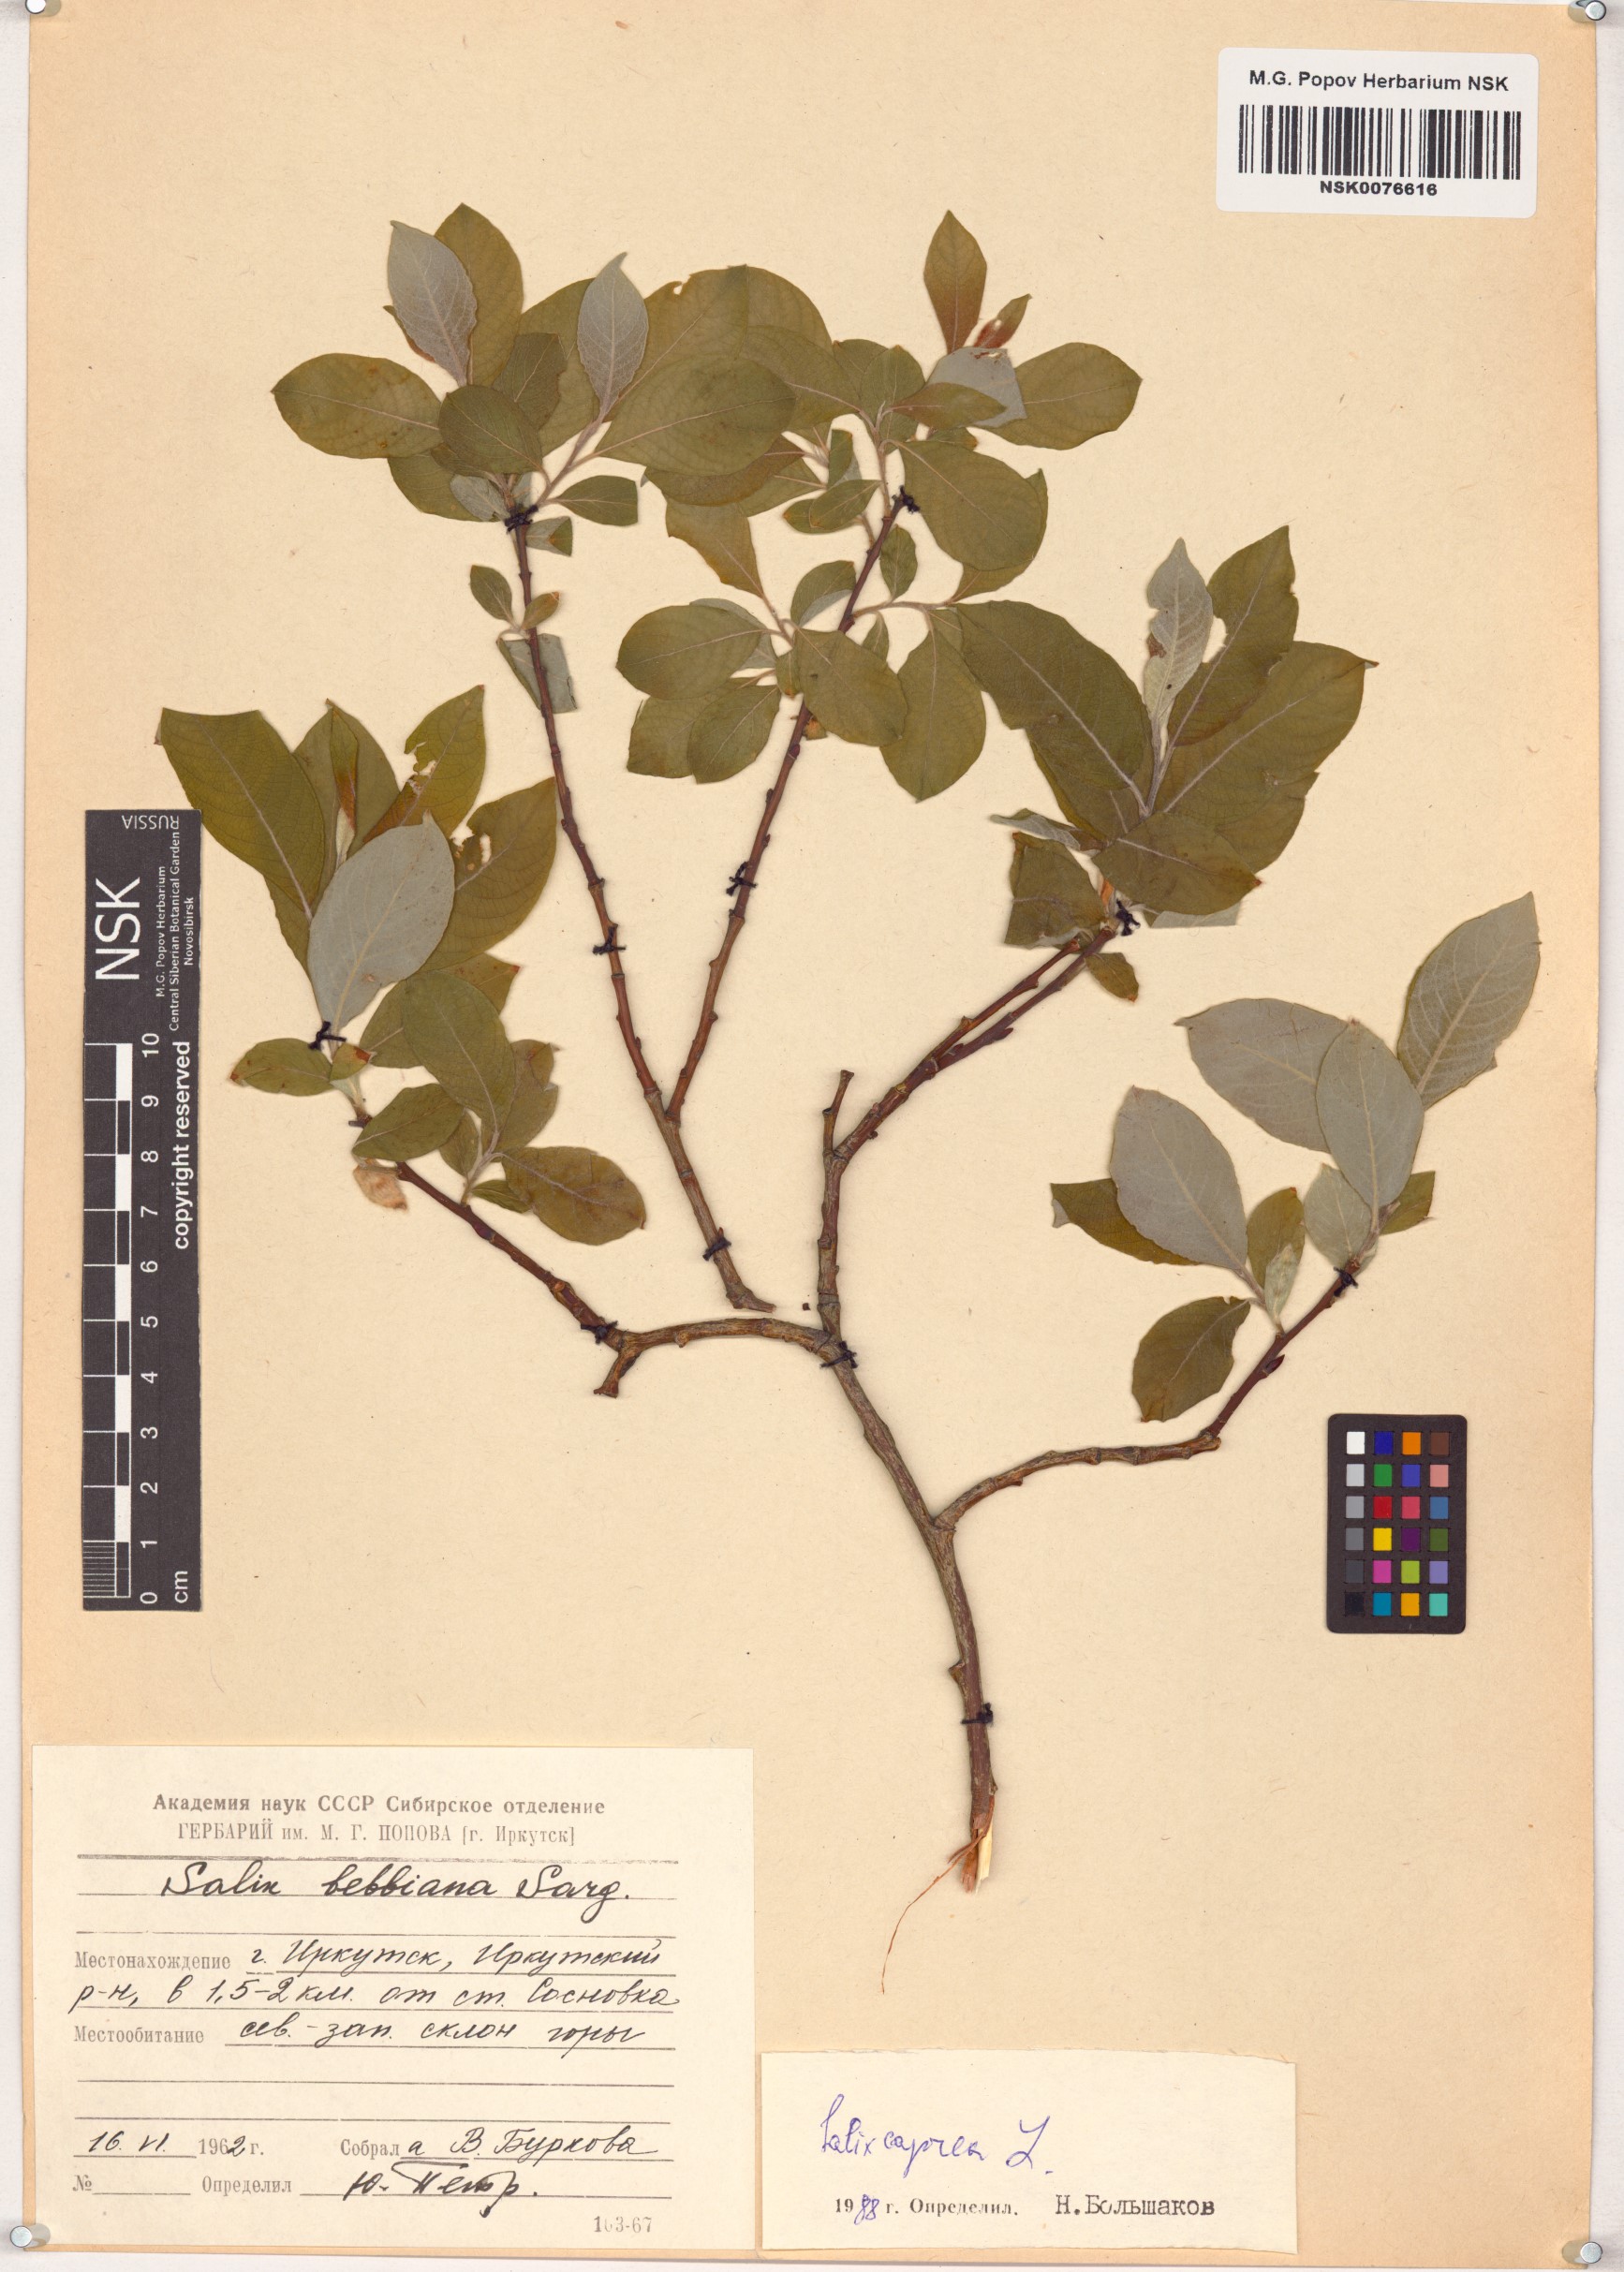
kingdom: Plantae
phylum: Tracheophyta
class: Magnoliopsida
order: Malpighiales
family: Salicaceae
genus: Salix
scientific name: Salix caprea
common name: Goat willow
